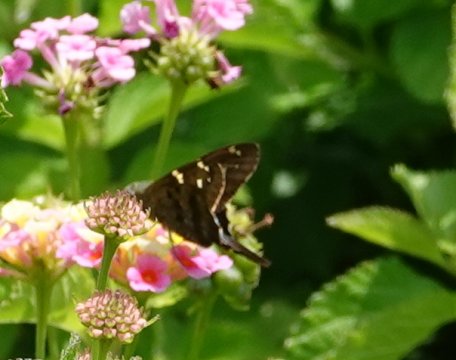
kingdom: Animalia
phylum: Arthropoda
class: Insecta
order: Lepidoptera
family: Hesperiidae
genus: Urbanus
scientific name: Urbanus proteus
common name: Long-tailed Skipper
